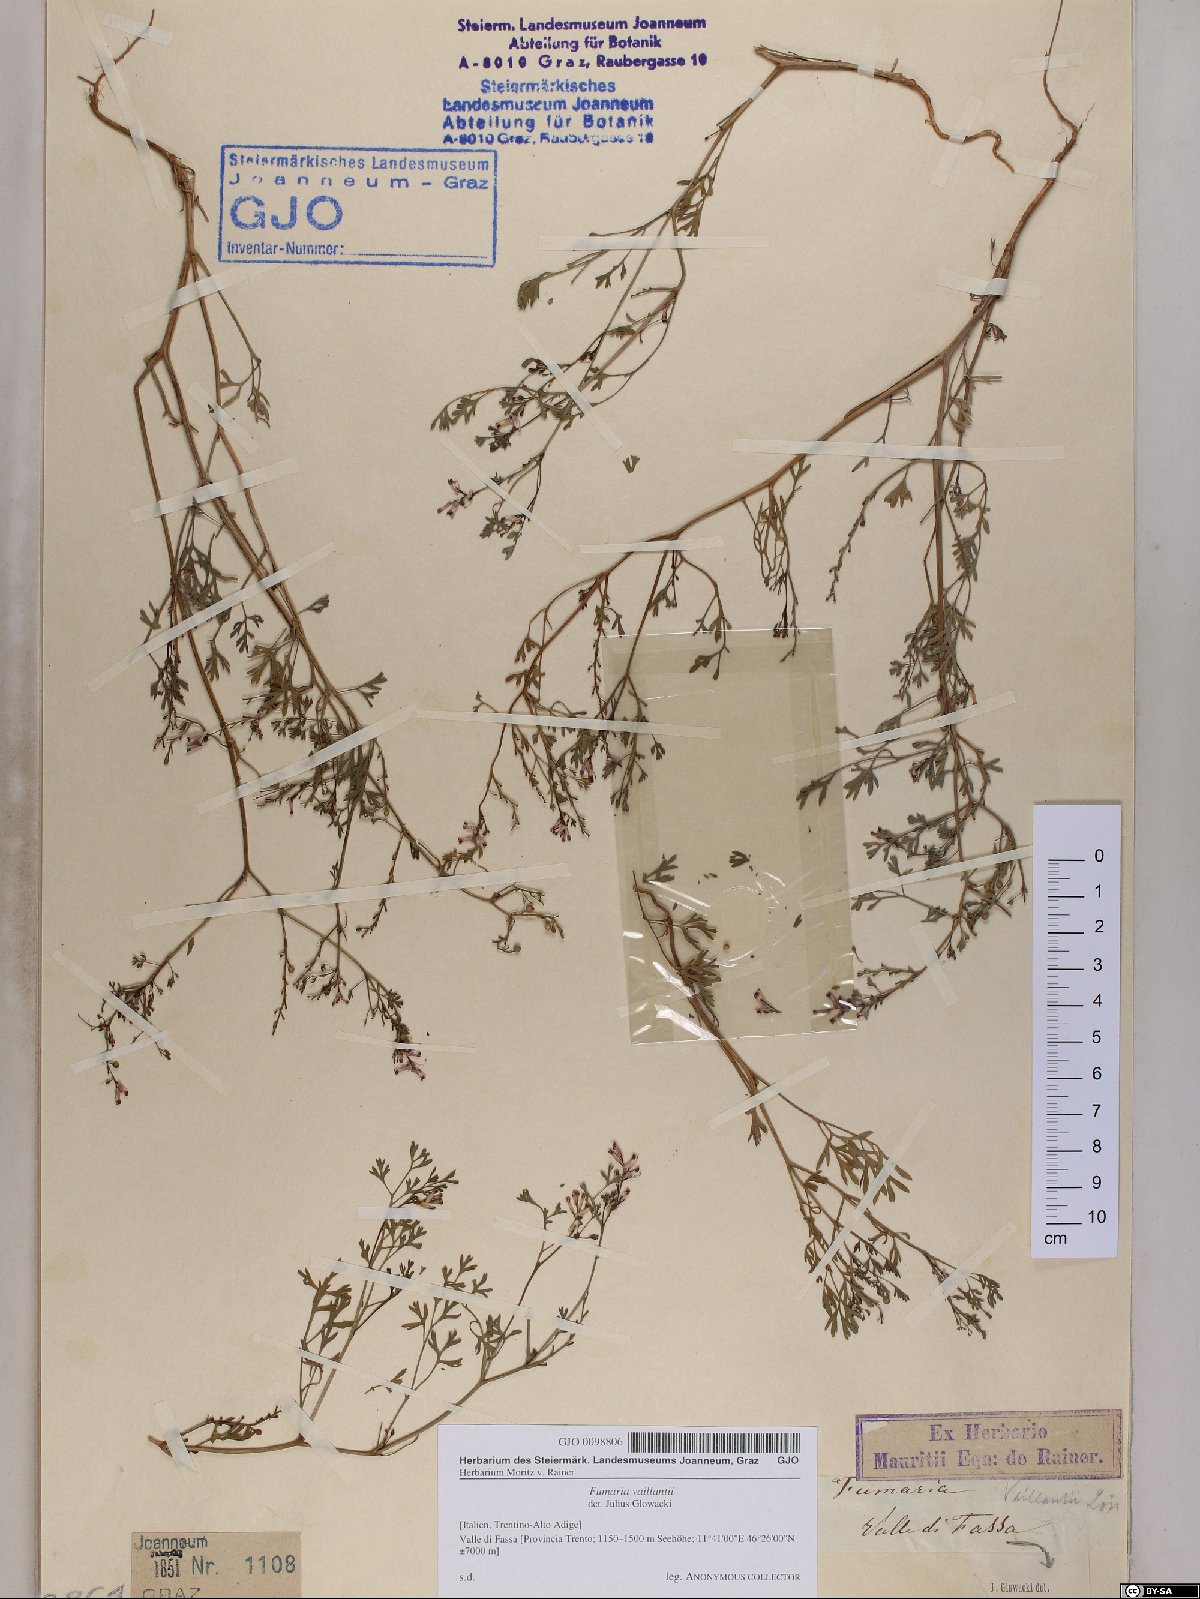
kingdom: Plantae
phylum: Tracheophyta
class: Magnoliopsida
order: Ranunculales
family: Papaveraceae
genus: Fumaria
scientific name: Fumaria vaillantii
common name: Few-flowered fumitory
